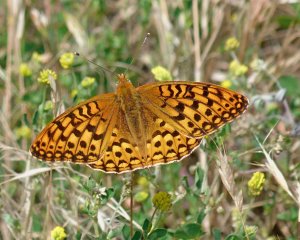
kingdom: Animalia
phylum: Arthropoda
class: Insecta
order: Lepidoptera
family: Nymphalidae
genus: Speyeria
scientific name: Speyeria zerene
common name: Zerene Fritillary
